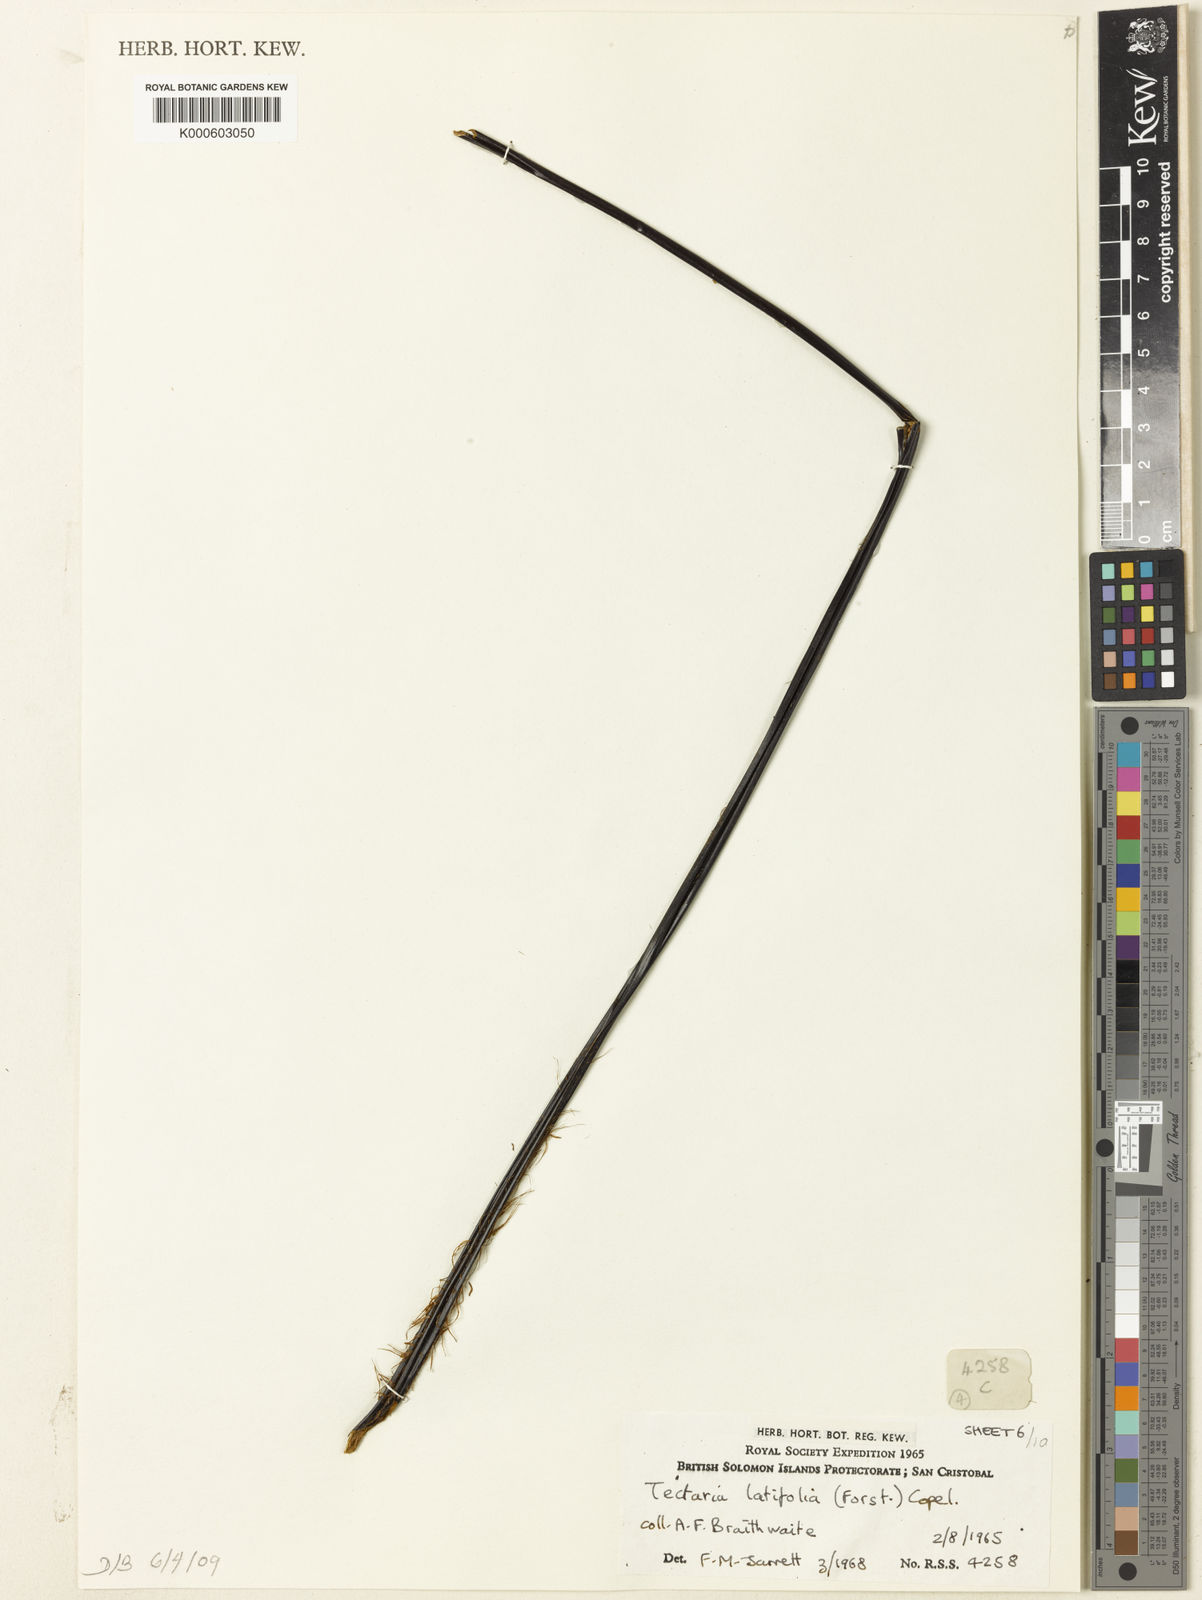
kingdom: Plantae
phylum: Tracheophyta
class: Polypodiopsida
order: Polypodiales
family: Tectariaceae
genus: Tectaria
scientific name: Tectaria
